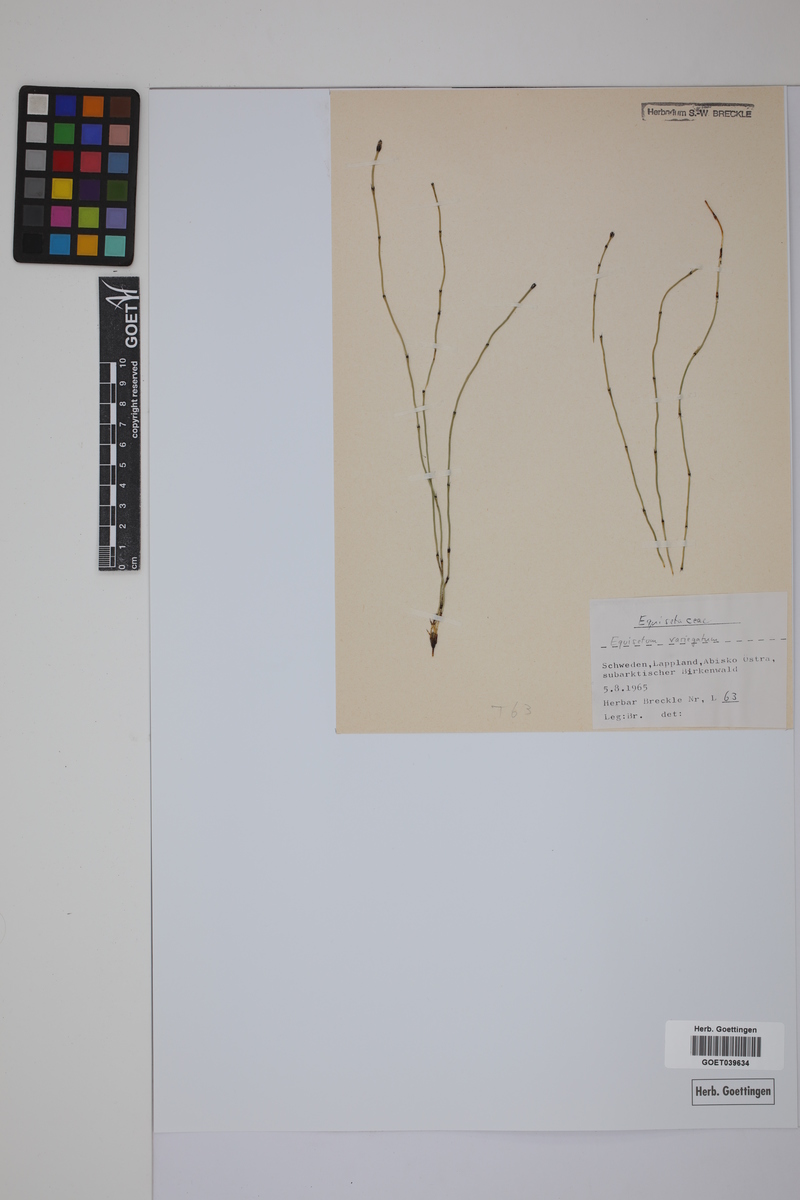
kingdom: Plantae
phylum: Tracheophyta
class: Polypodiopsida
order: Equisetales
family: Equisetaceae
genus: Equisetum
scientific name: Equisetum variegatum
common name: Variegated horsetail
